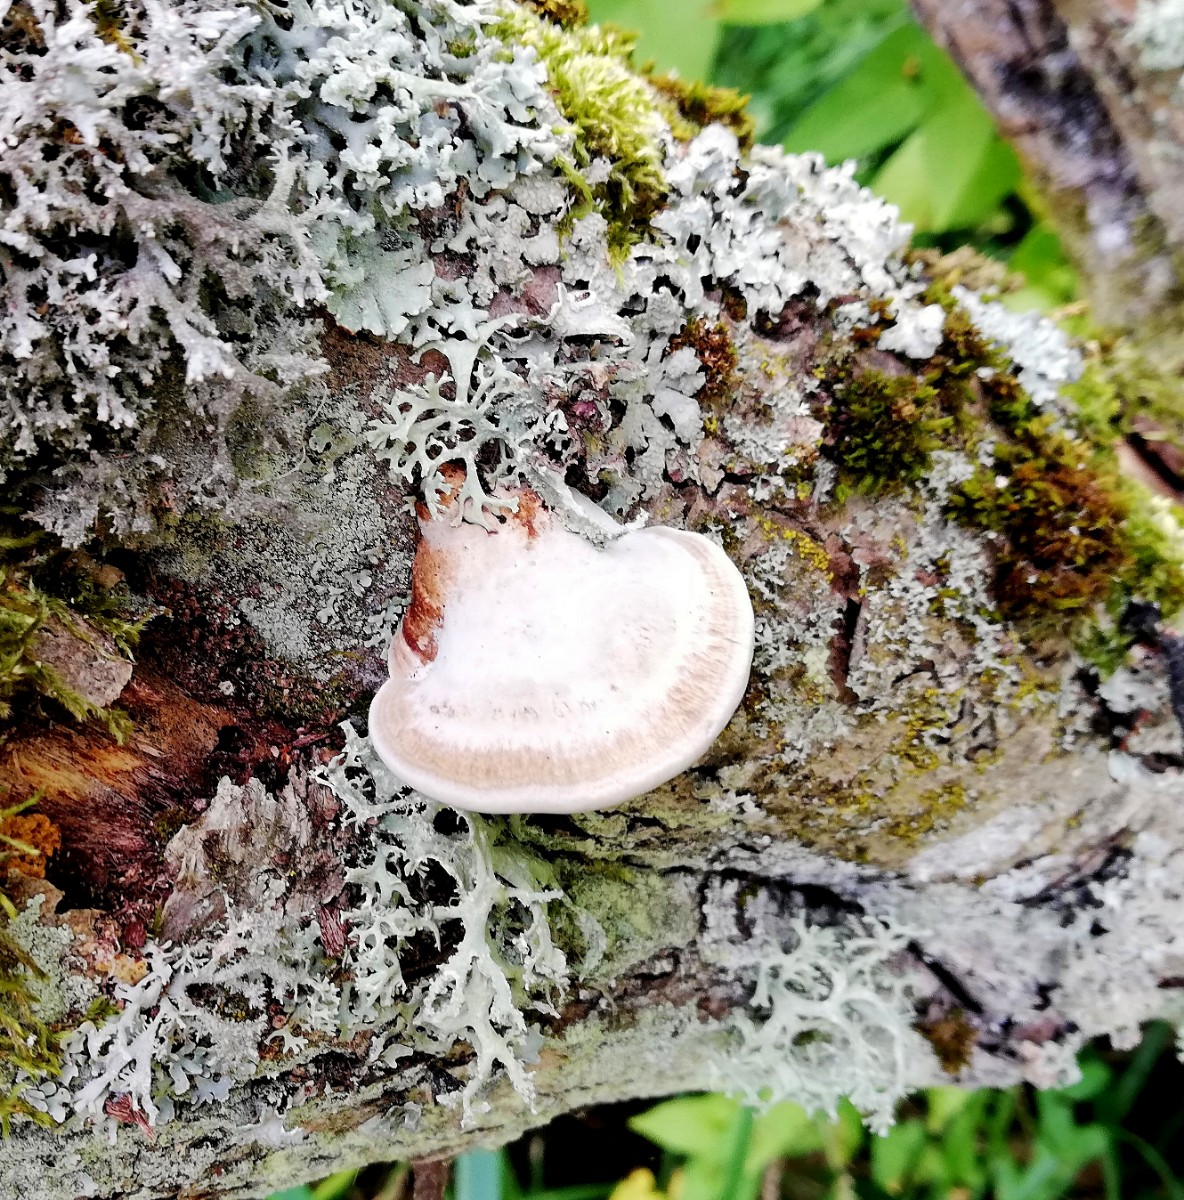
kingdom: Fungi
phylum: Basidiomycota
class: Agaricomycetes
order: Polyporales
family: Polyporaceae
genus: Daedaleopsis
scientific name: Daedaleopsis confragosa
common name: rødmende læderporesvamp
